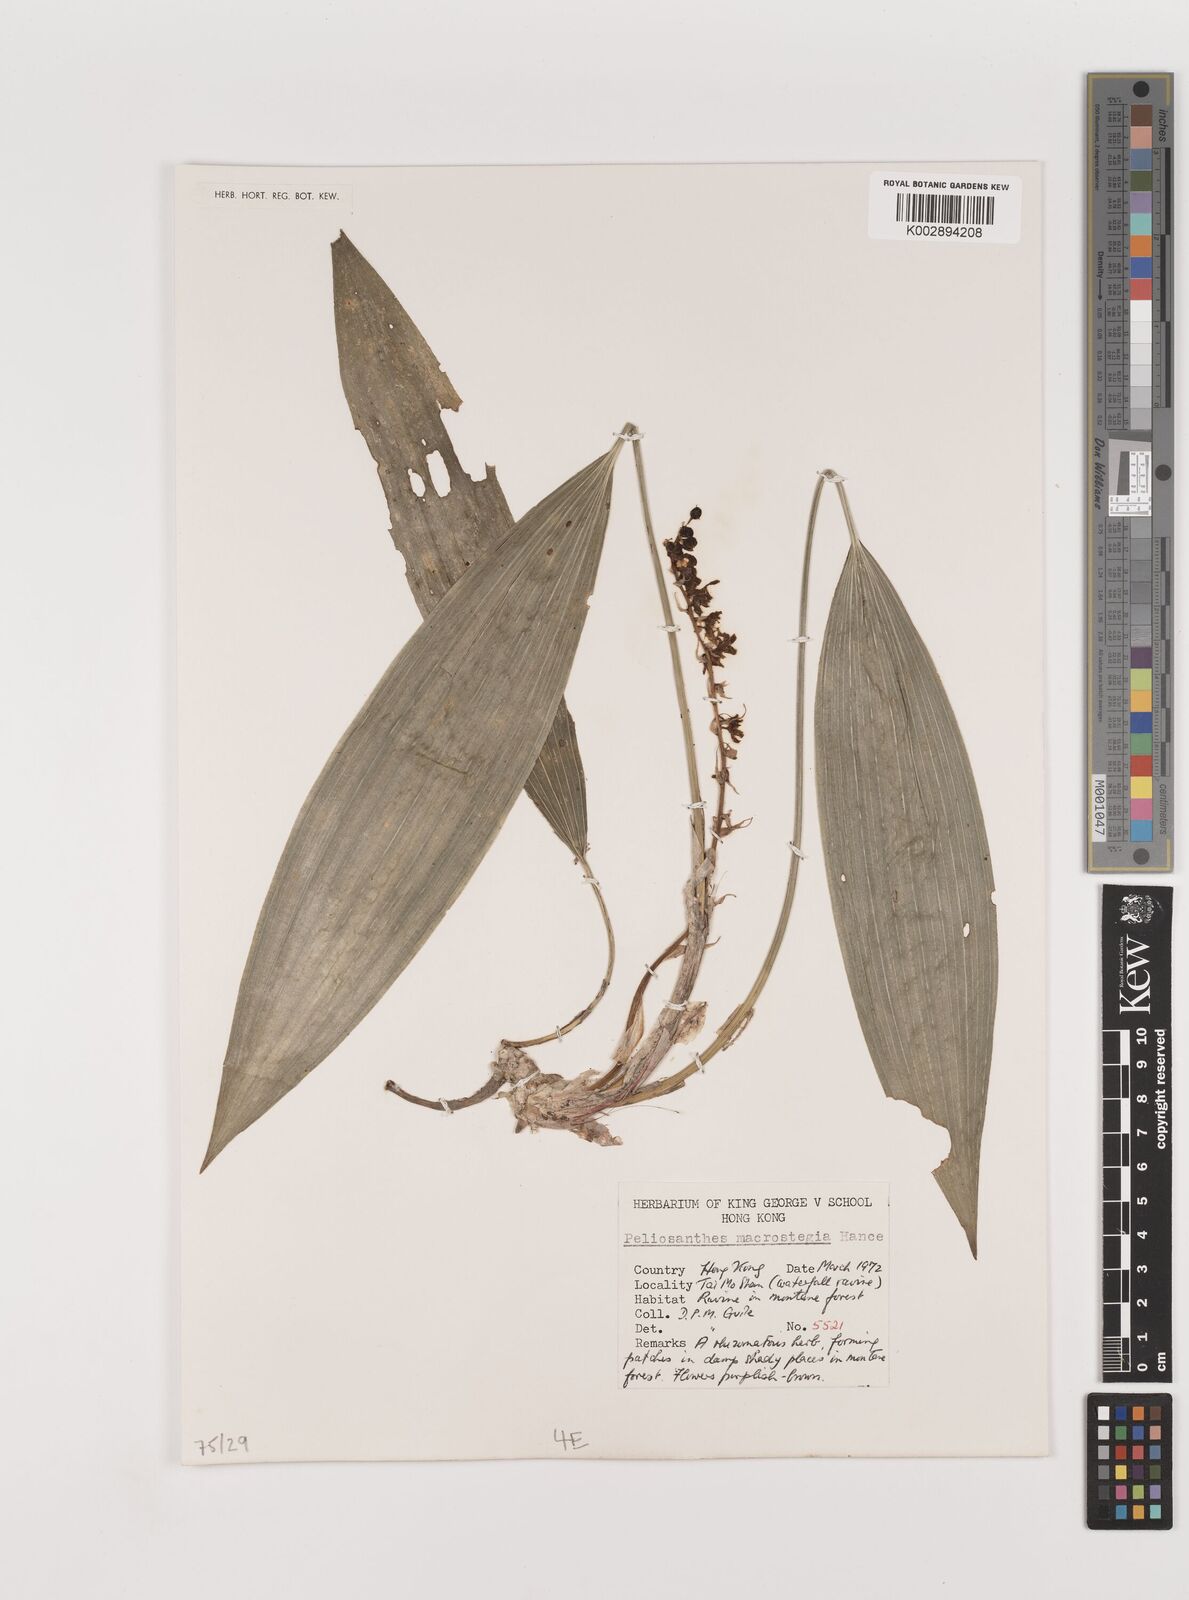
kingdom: Plantae
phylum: Tracheophyta
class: Liliopsida
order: Asparagales
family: Asparagaceae
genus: Peliosanthes
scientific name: Peliosanthes teta
